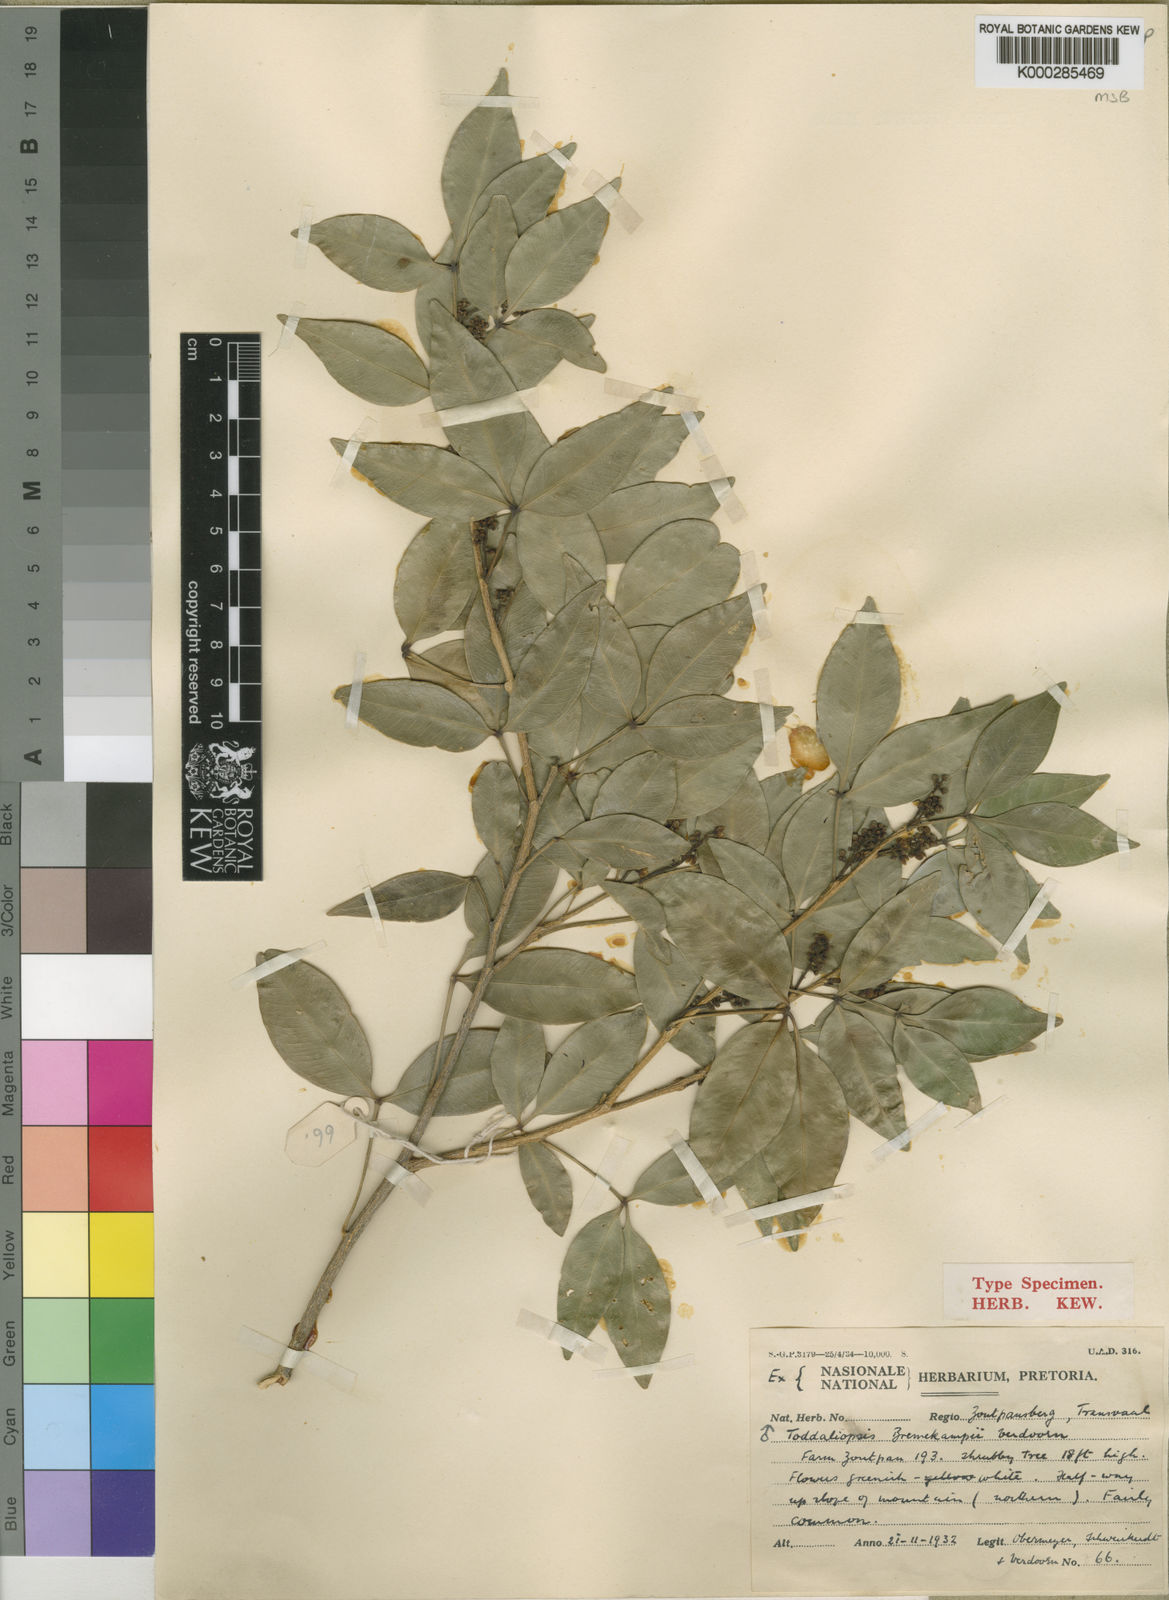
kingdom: Plantae
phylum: Tracheophyta
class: Magnoliopsida
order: Sapindales
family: Rutaceae
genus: Vepris
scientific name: Vepris bremekampii
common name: Wild mandarin
